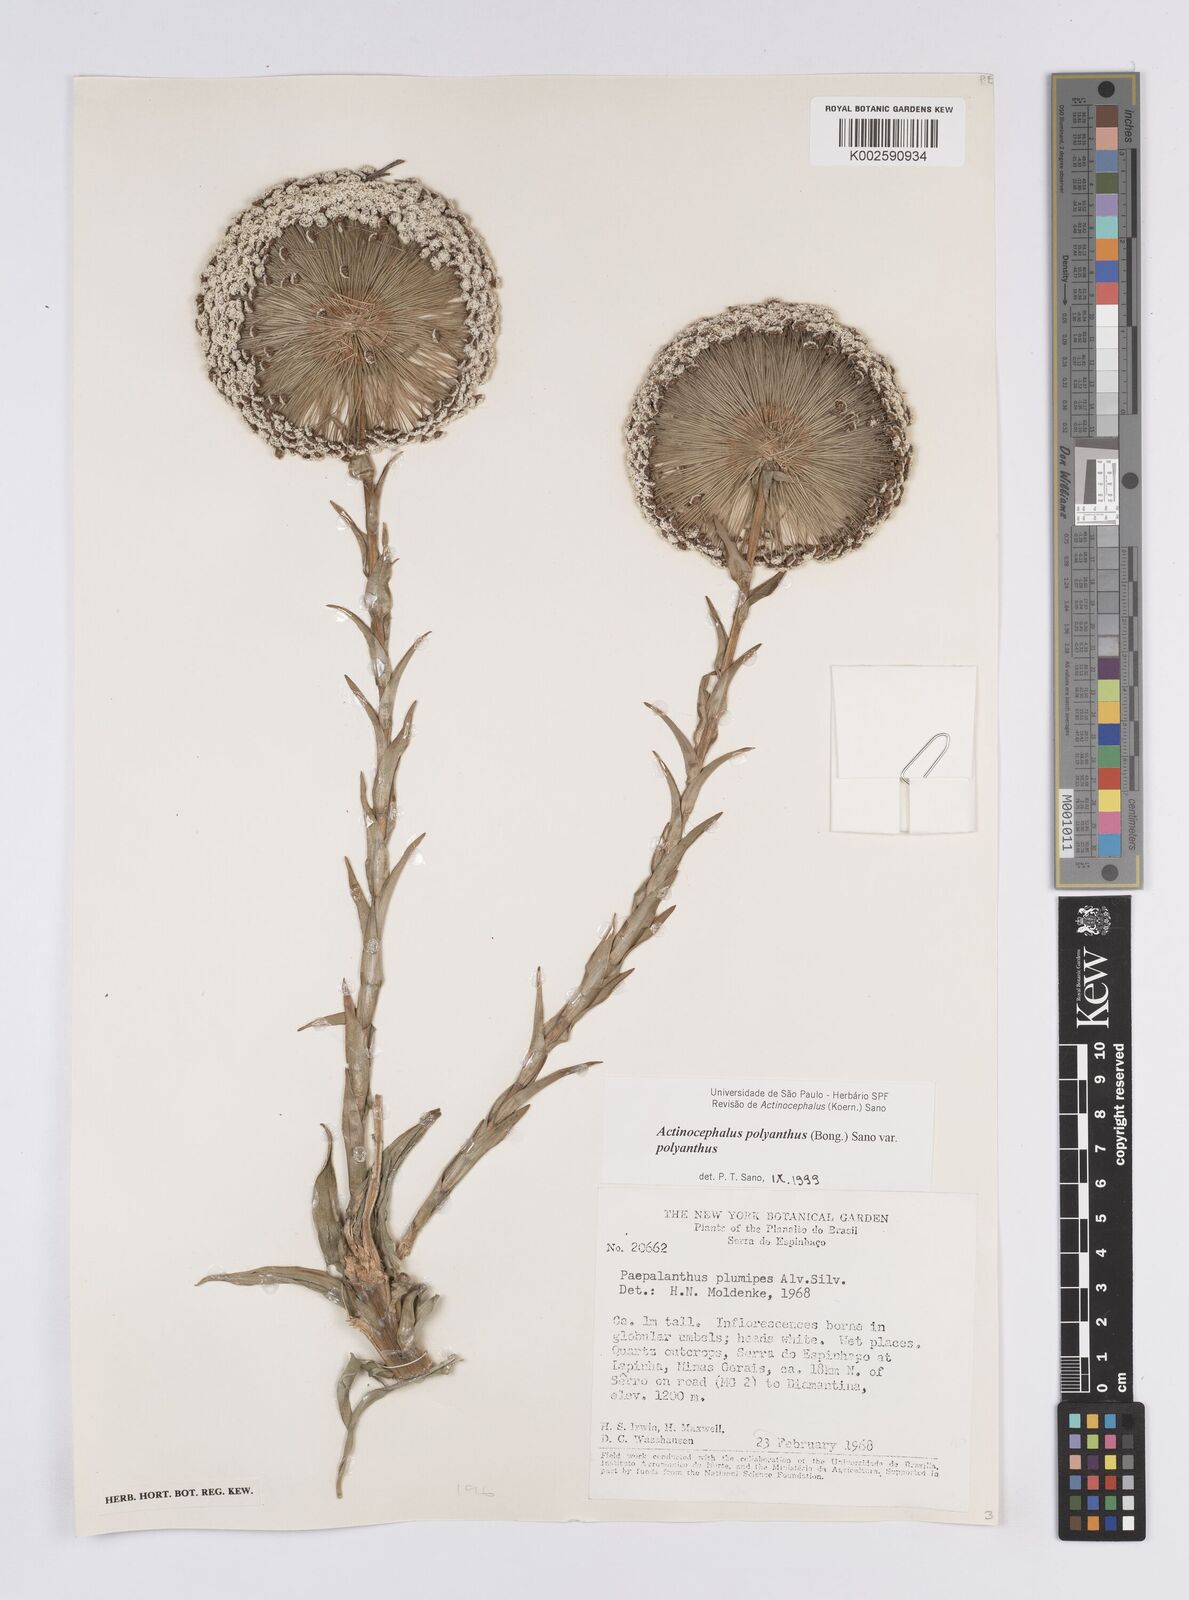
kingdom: Plantae
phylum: Tracheophyta
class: Liliopsida
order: Poales
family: Eriocaulaceae
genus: Paepalanthus
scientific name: Paepalanthus polyanthus
